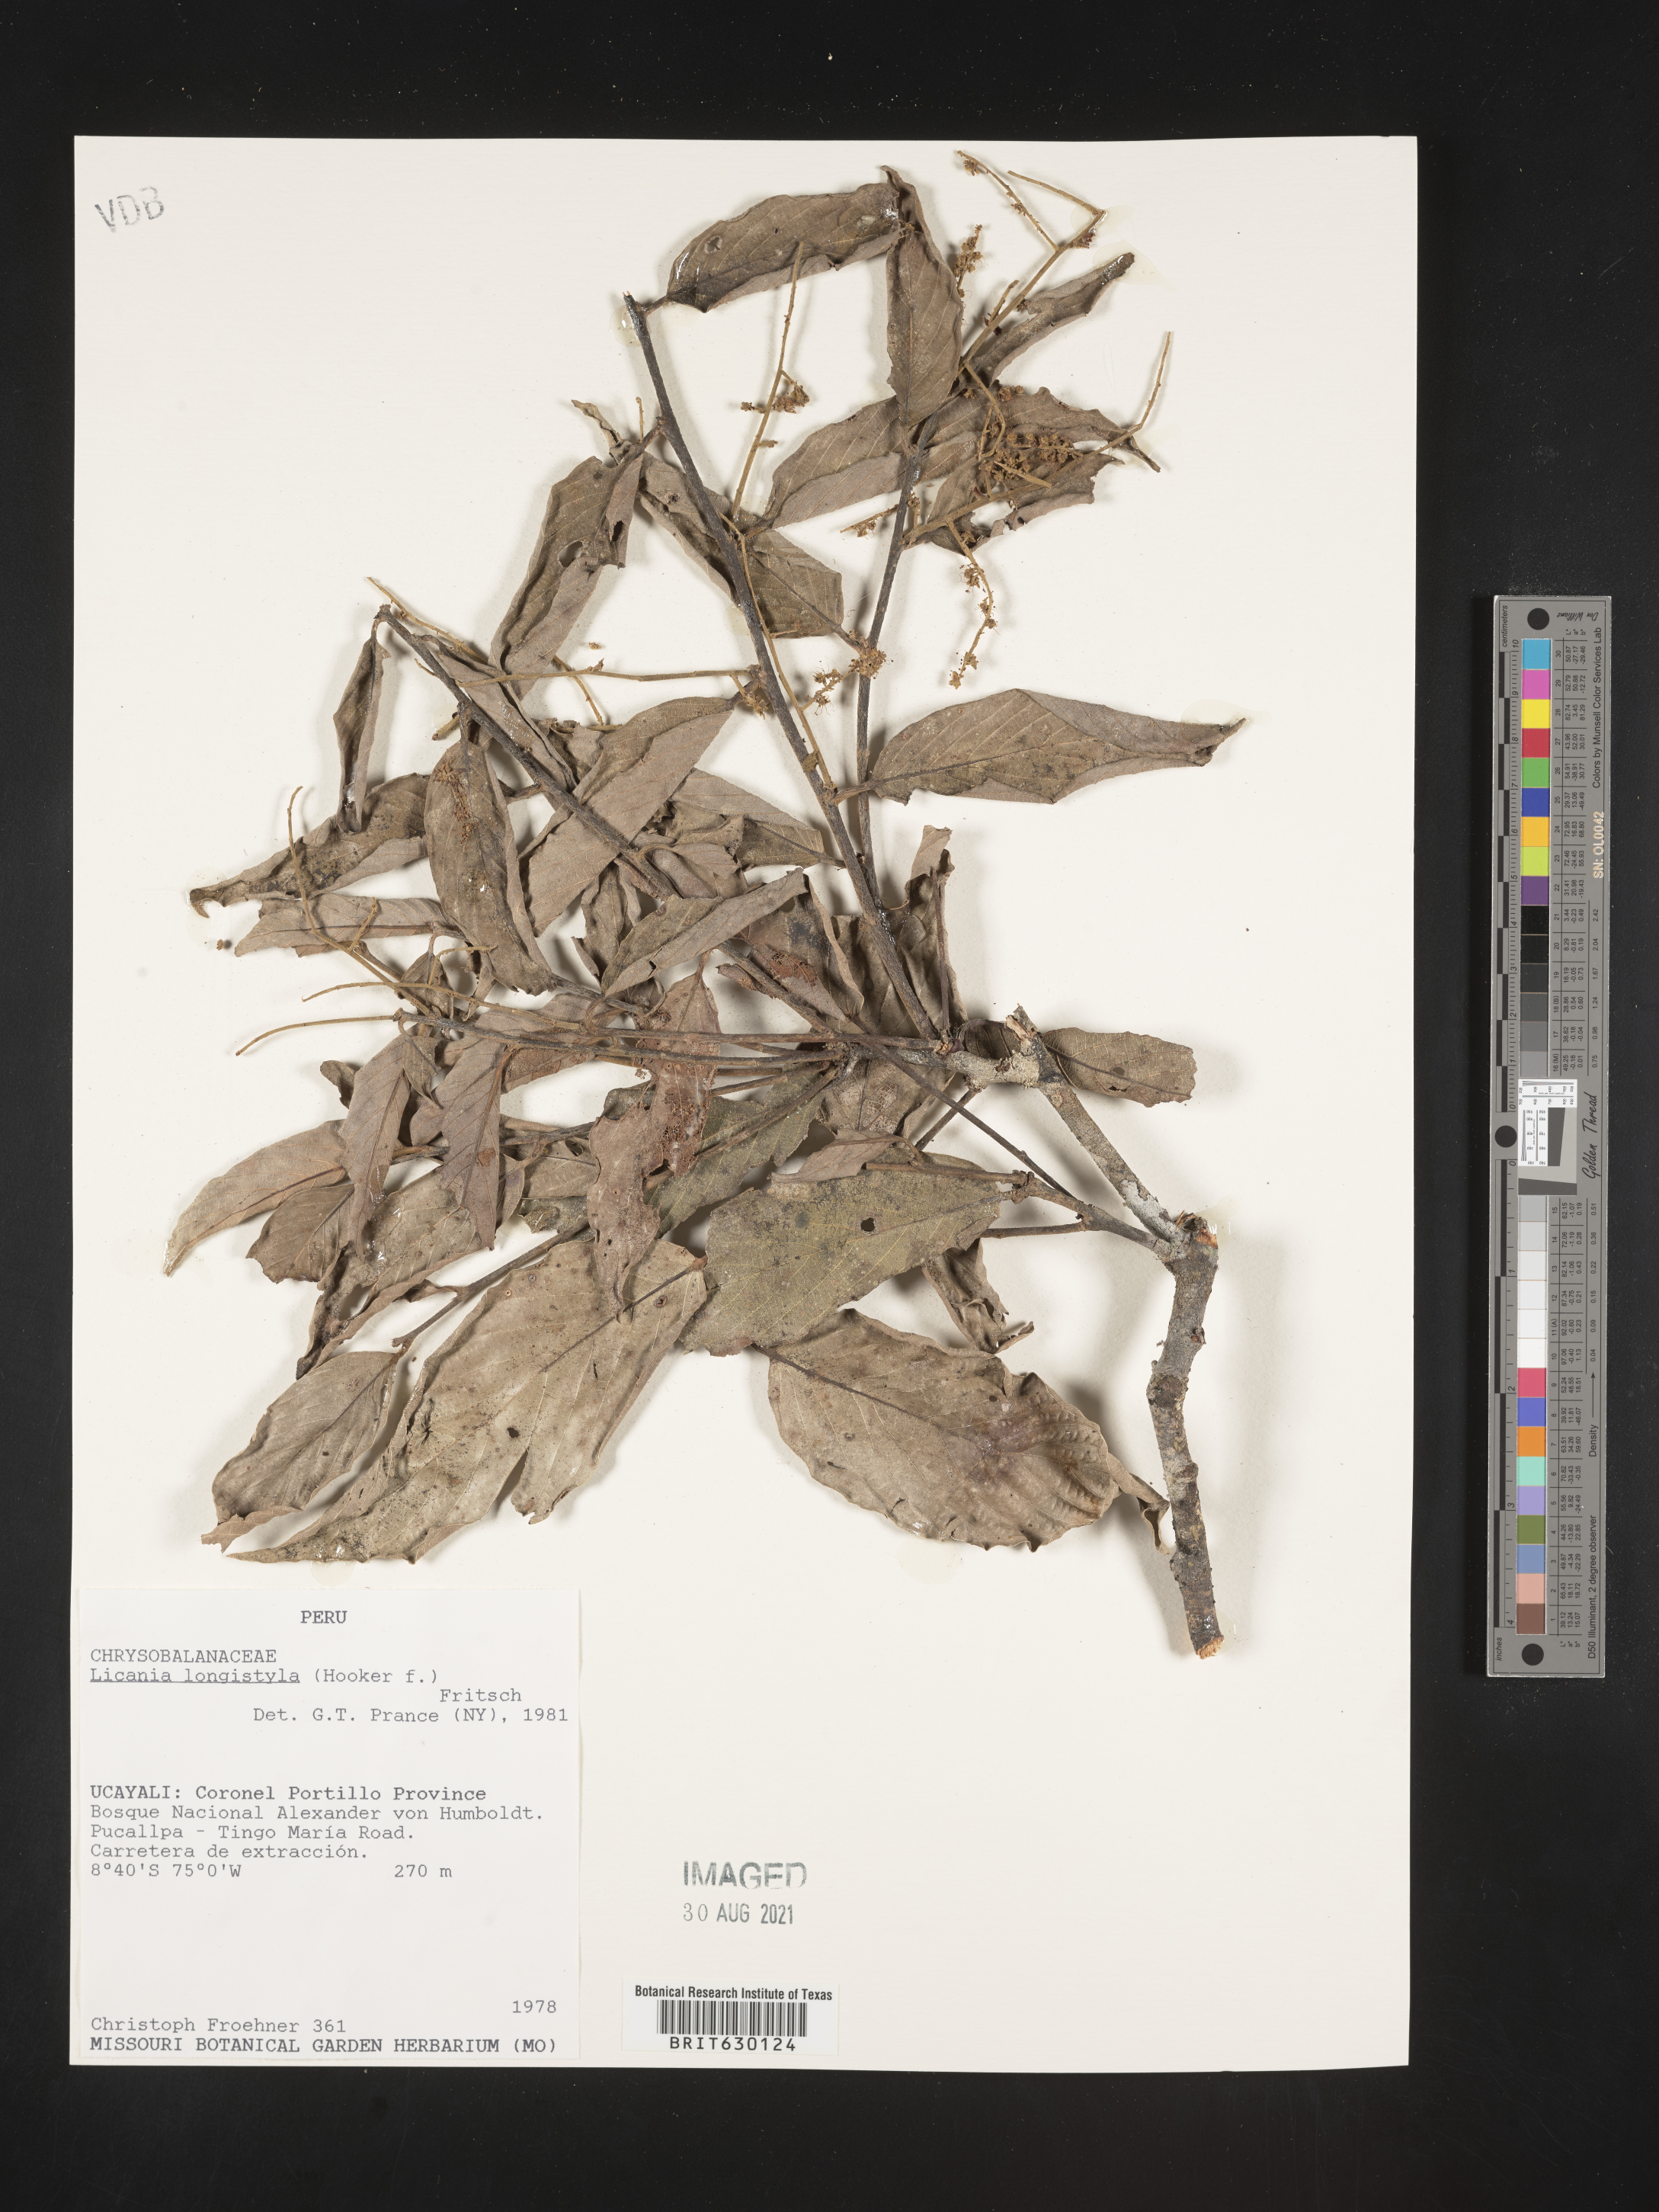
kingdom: Plantae
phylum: Tracheophyta
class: Magnoliopsida
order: Malpighiales
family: Chrysobalanaceae
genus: Leptobalanus
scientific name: Leptobalanus longistylus
